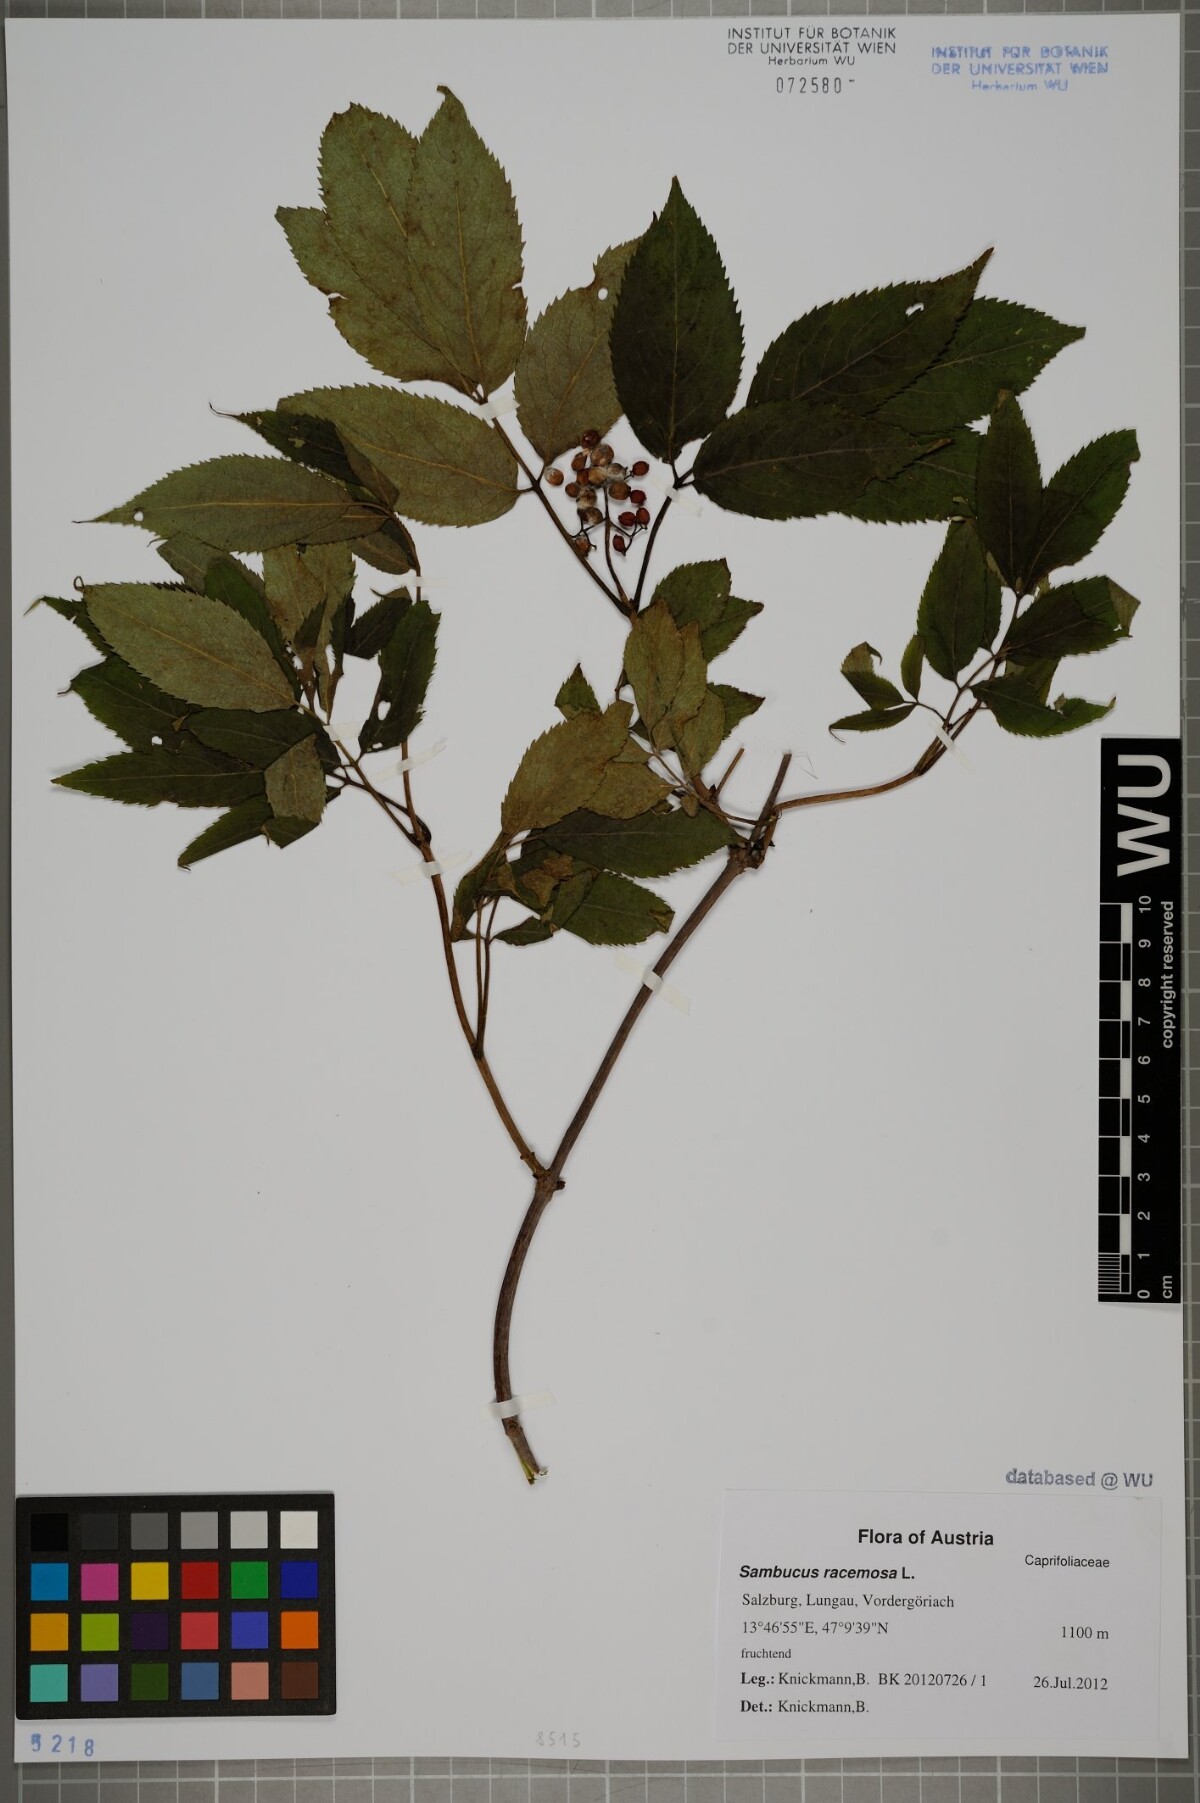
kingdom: Plantae
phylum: Tracheophyta
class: Magnoliopsida
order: Dipsacales
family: Viburnaceae
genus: Sambucus
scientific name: Sambucus racemosa
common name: Red-berried elder
